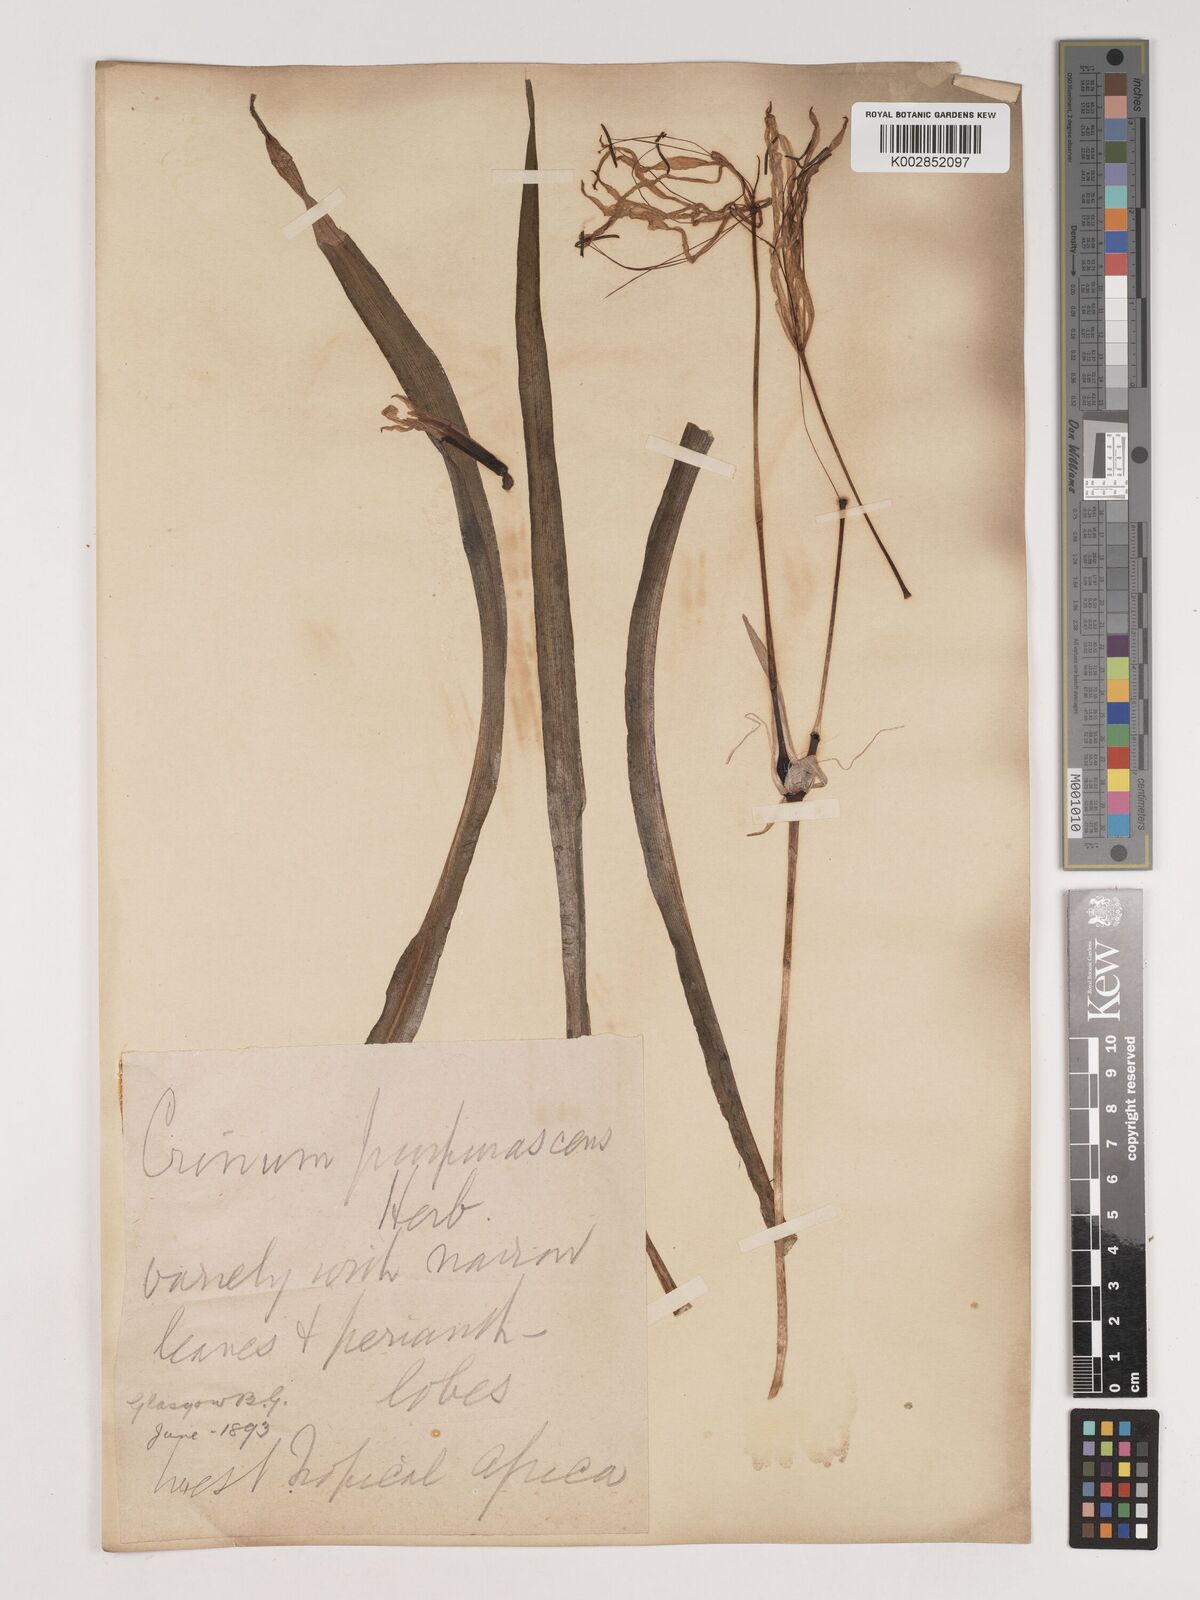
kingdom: Plantae
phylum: Tracheophyta
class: Liliopsida
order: Asparagales
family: Amaryllidaceae
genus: Crinum
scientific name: Crinum purpurascens
